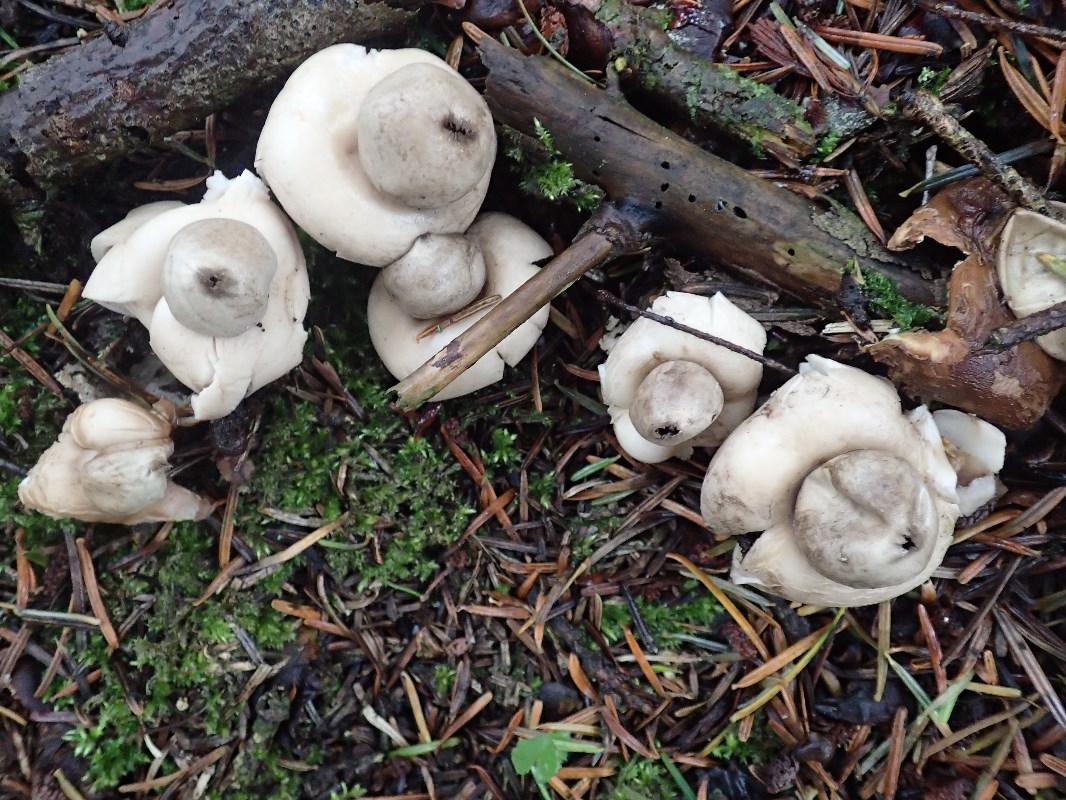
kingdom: Fungi
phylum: Basidiomycota
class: Agaricomycetes
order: Geastrales
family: Geastraceae
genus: Geastrum
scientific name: Geastrum fimbriatum
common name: frynset stjernebold
